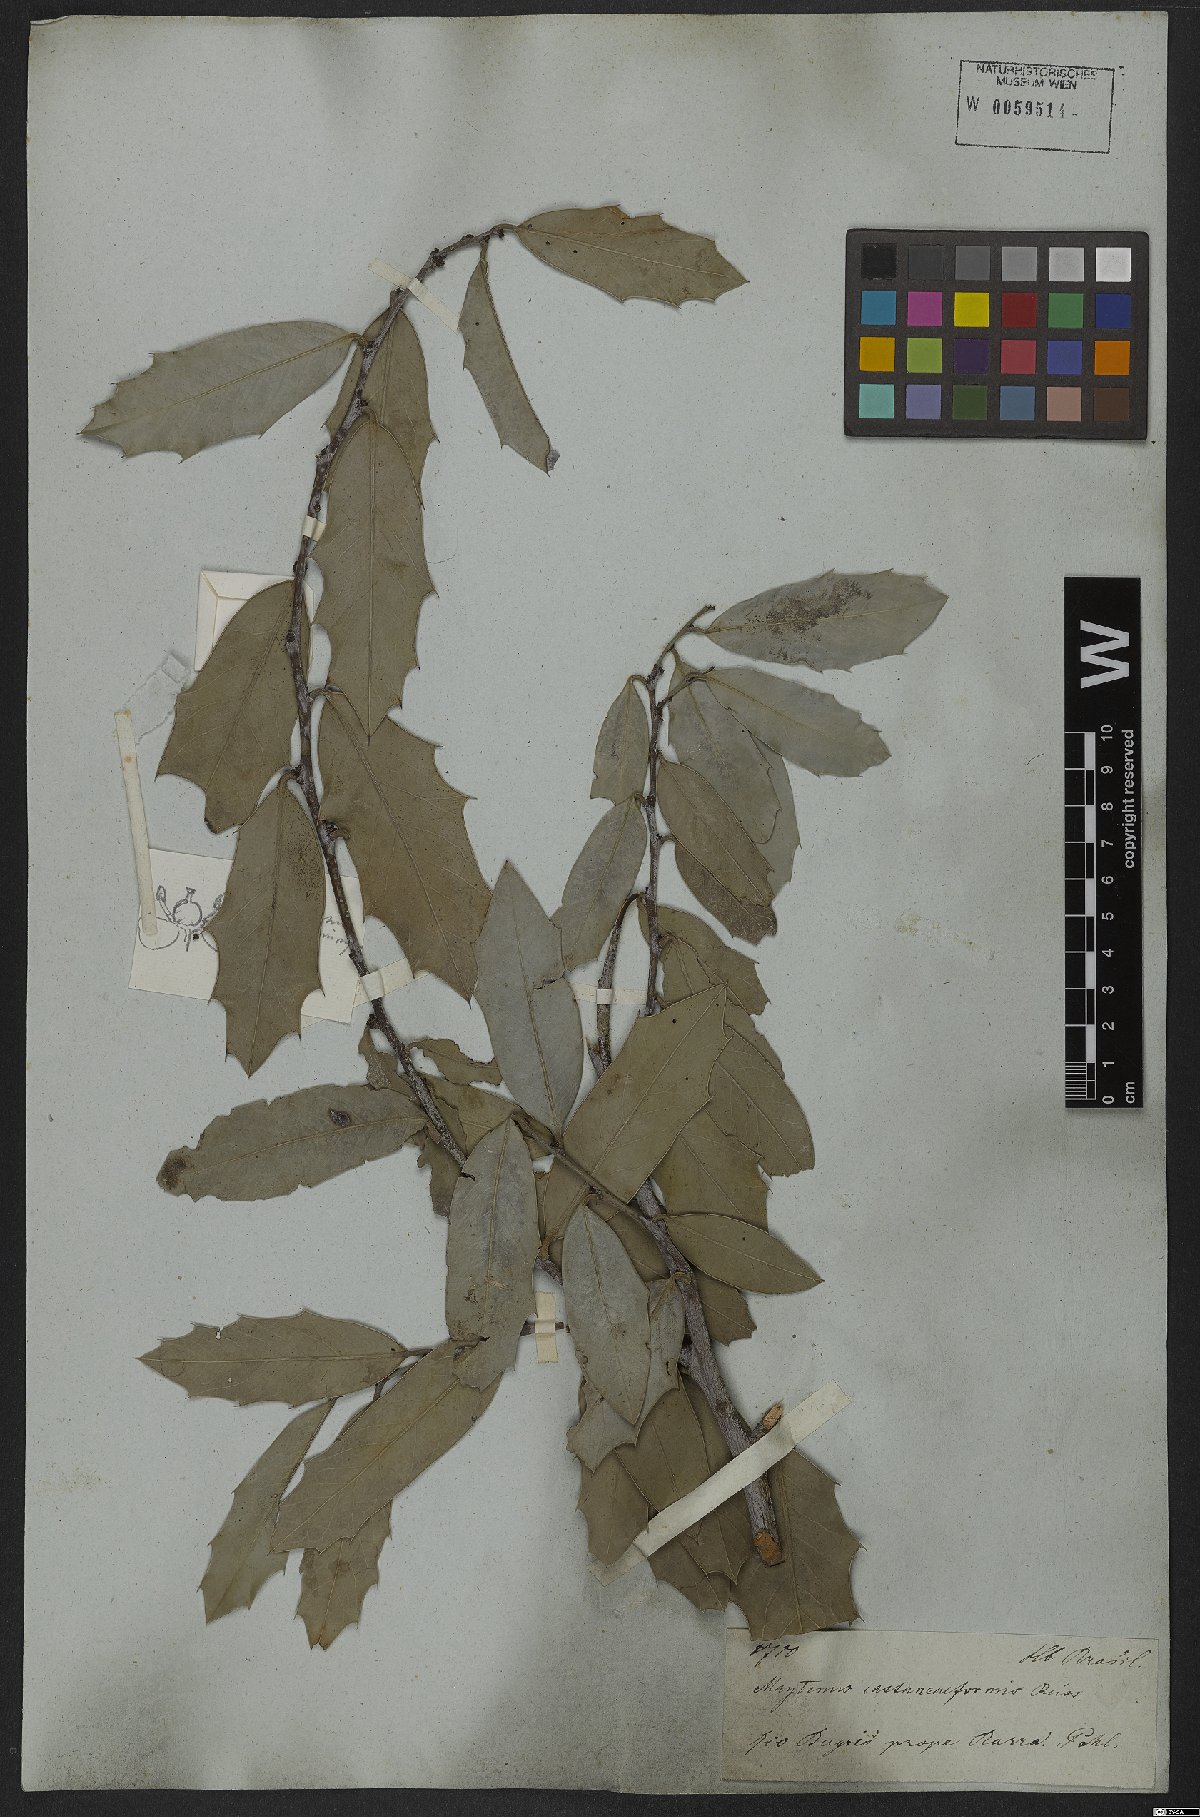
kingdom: Plantae
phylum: Tracheophyta
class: Magnoliopsida
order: Celastrales
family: Celastraceae
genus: Monteverdia
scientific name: Monteverdia cassineformis
